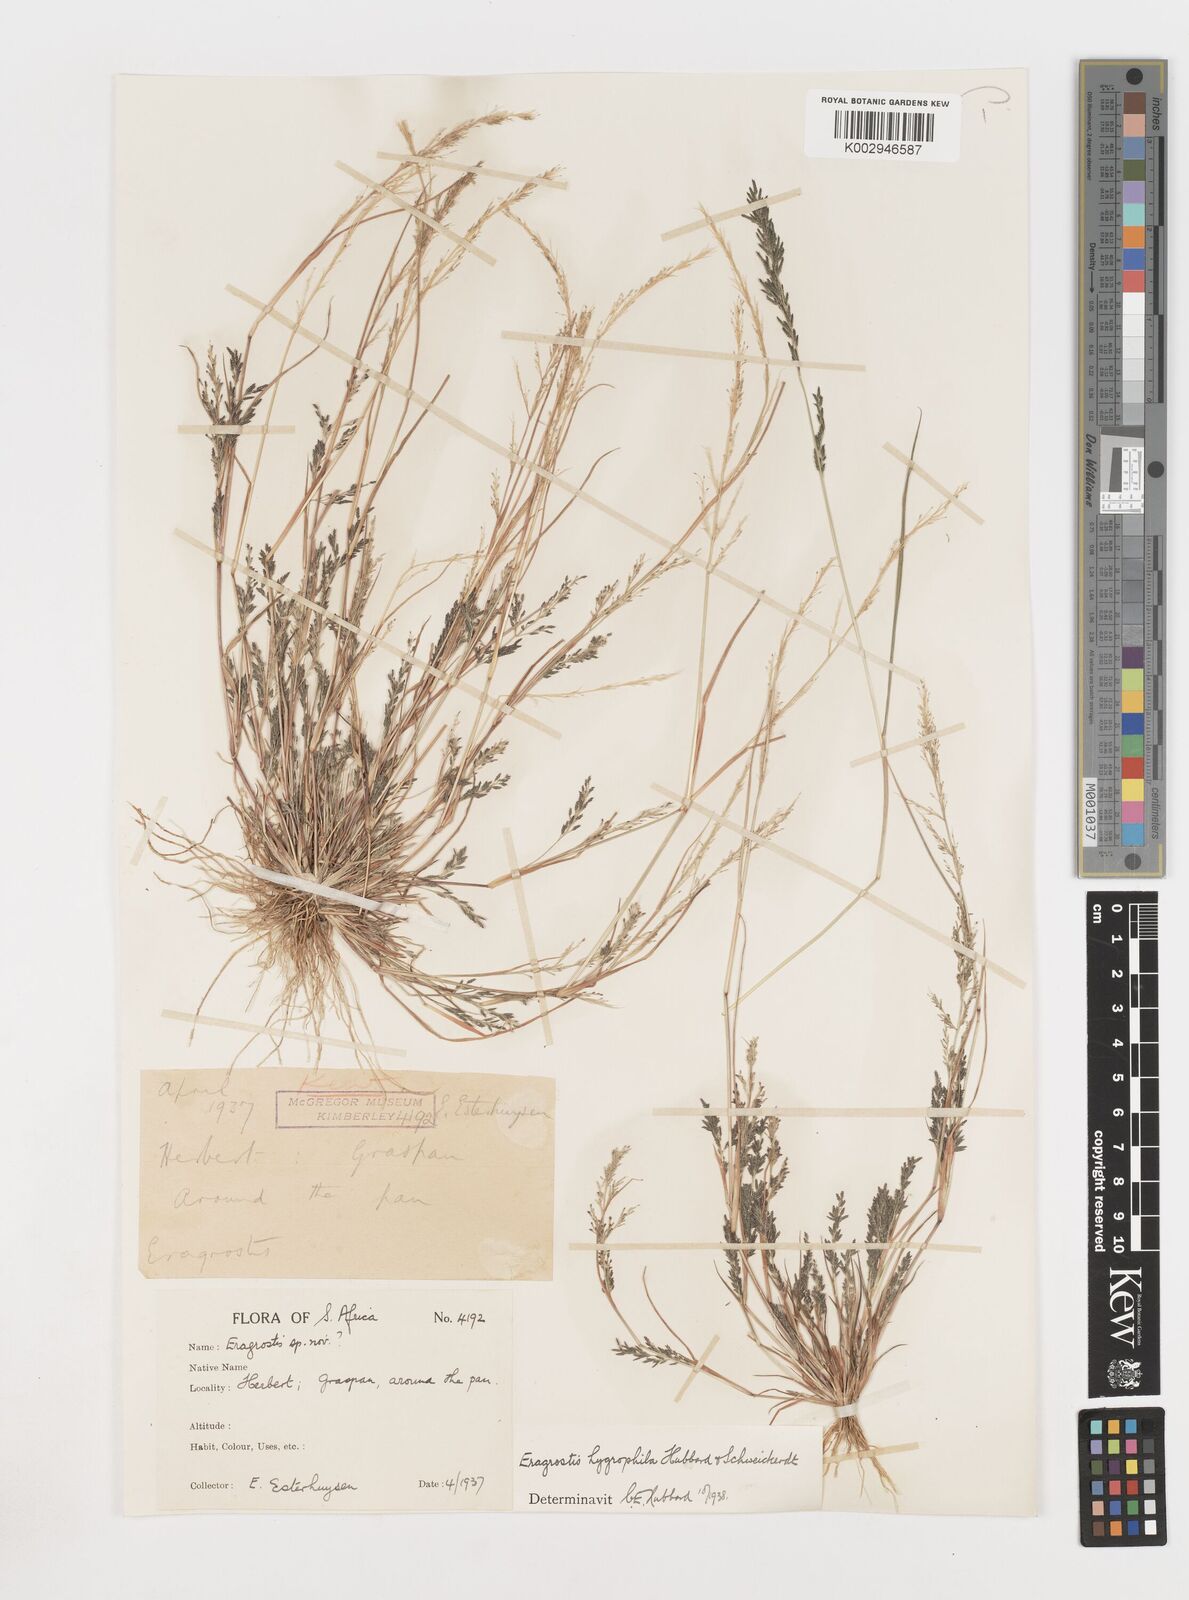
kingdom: Plantae
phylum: Tracheophyta
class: Liliopsida
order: Poales
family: Poaceae
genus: Eragrostis
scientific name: Eragrostis homomalla
